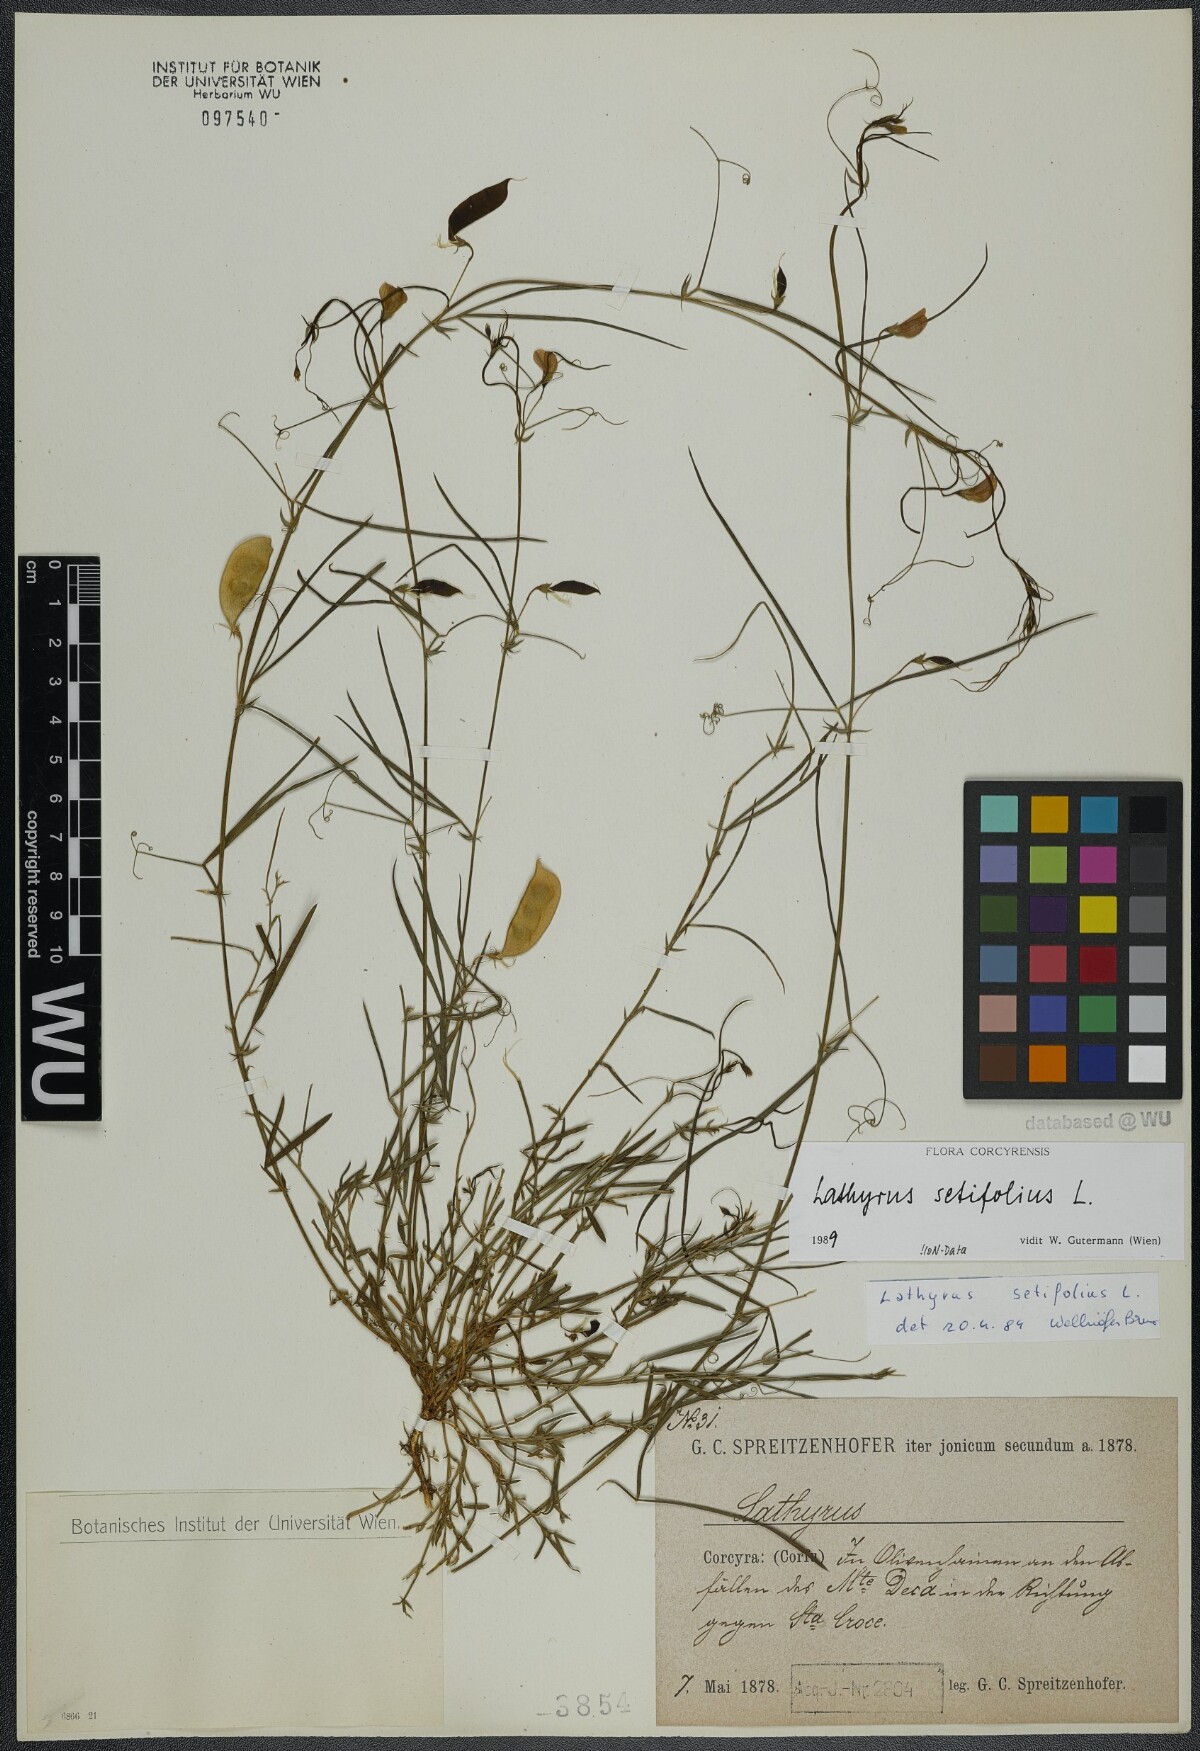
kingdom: Plantae
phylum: Tracheophyta
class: Magnoliopsida
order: Fabales
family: Fabaceae
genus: Lathyrus
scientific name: Lathyrus setifolius
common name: Brown vetchling
